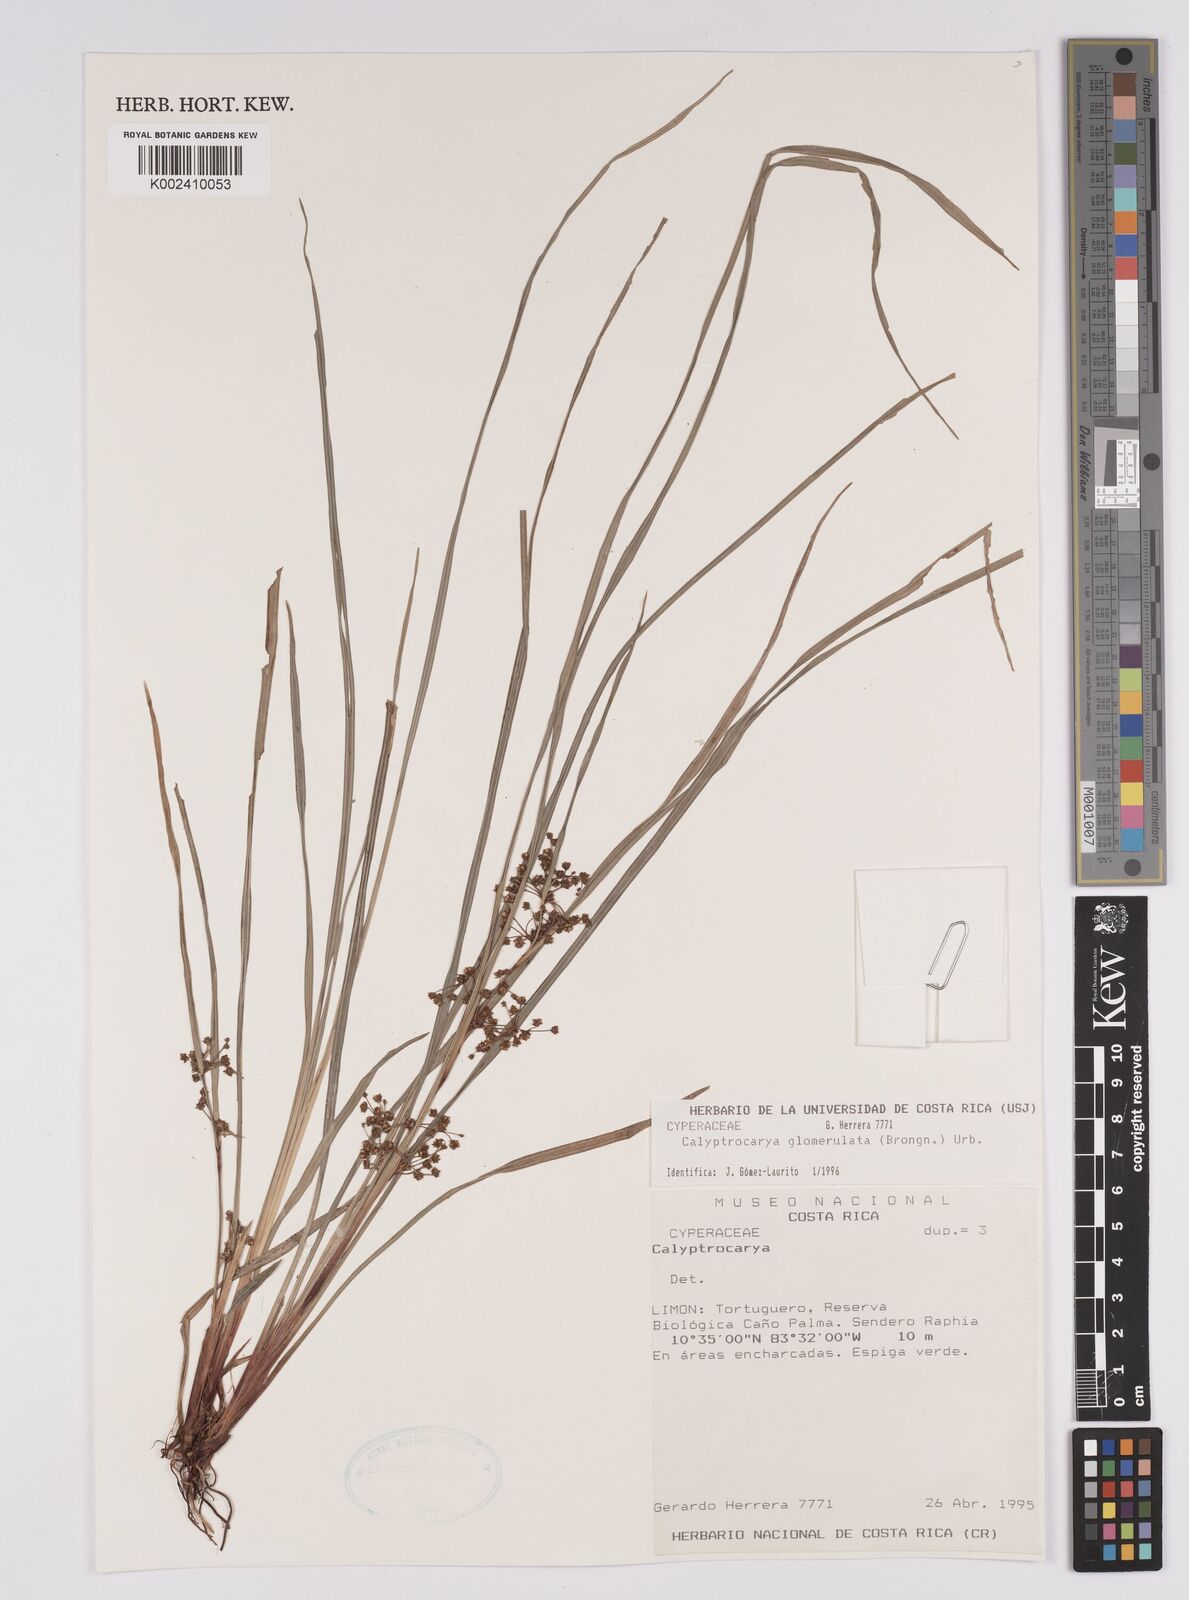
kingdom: Plantae
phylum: Tracheophyta
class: Liliopsida
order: Poales
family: Cyperaceae
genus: Calyptrocarya
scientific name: Calyptrocarya glomerulata
